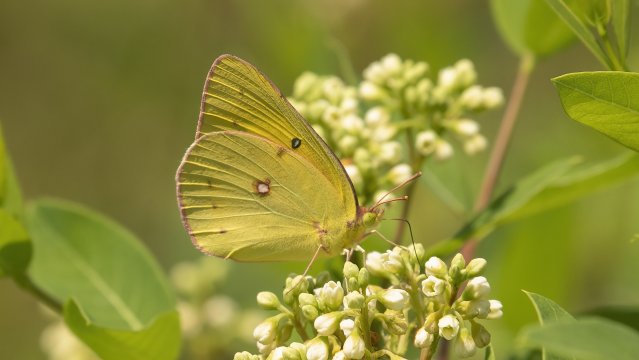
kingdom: Animalia
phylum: Arthropoda
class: Insecta
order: Lepidoptera
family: Pieridae
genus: Colias
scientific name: Colias eurytheme
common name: Orange Sulphur
